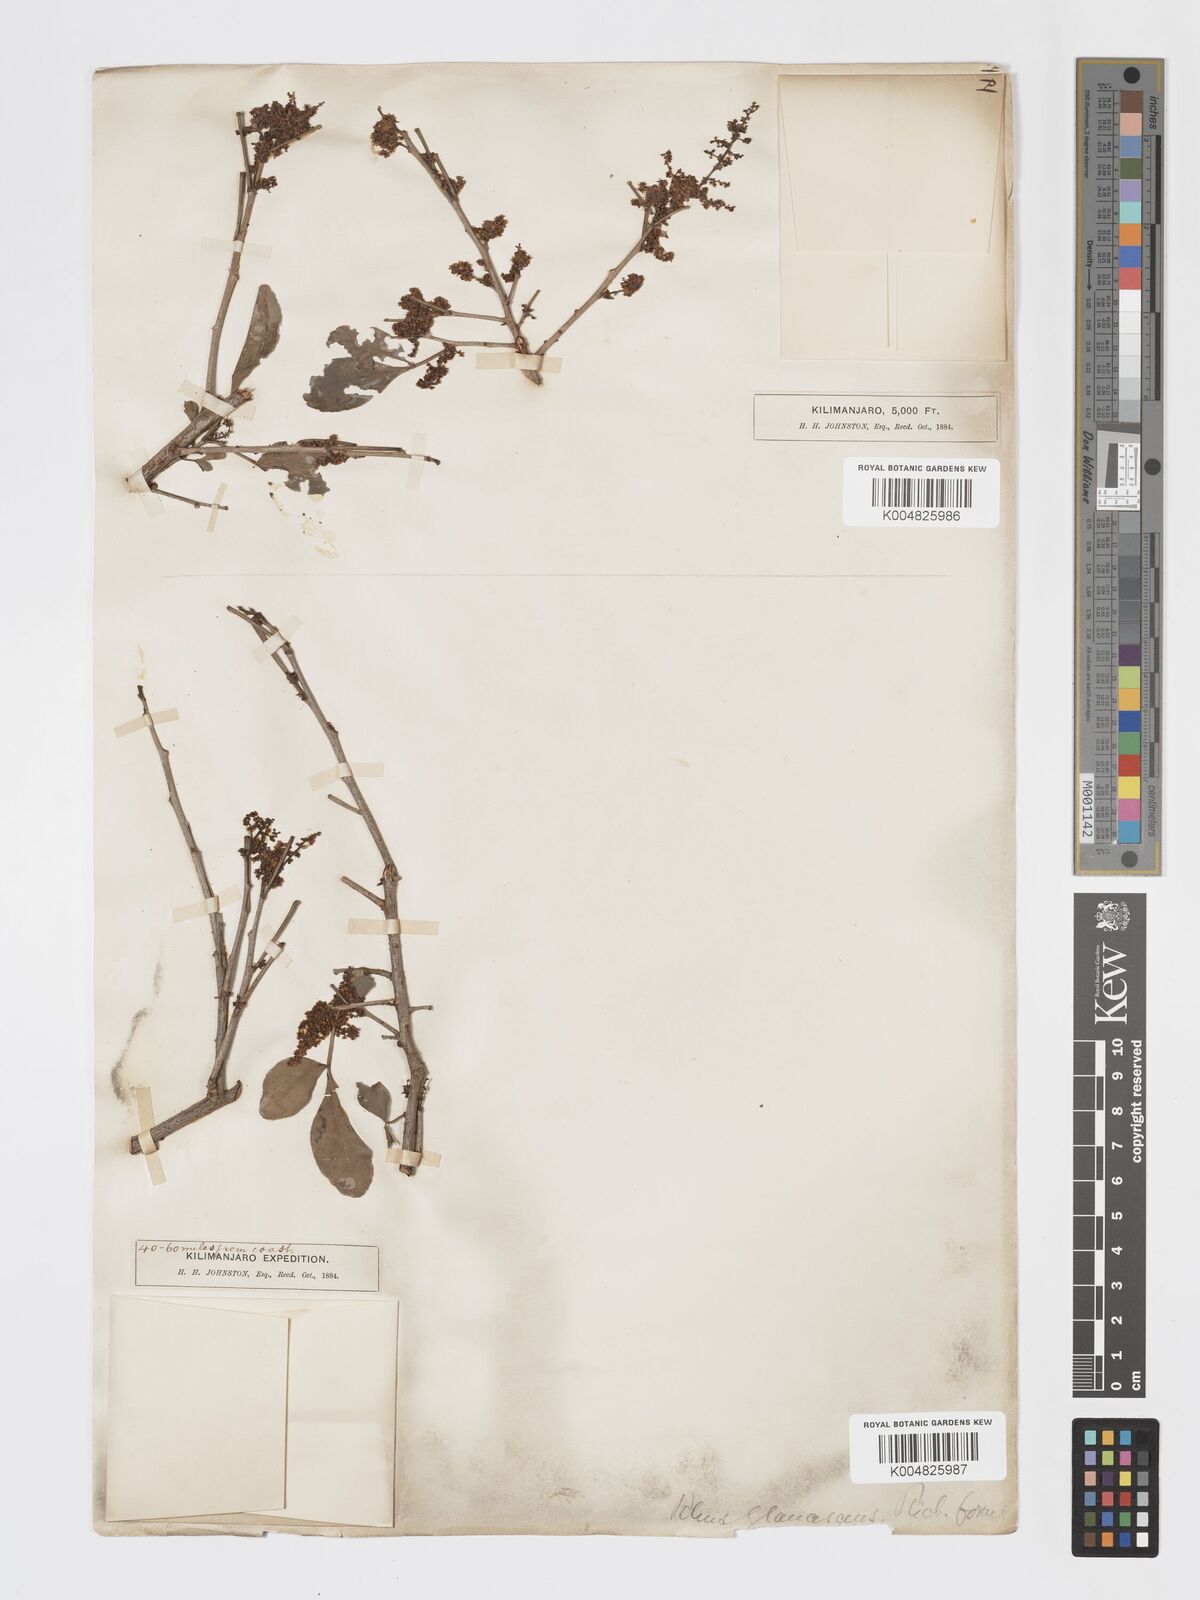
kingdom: Plantae
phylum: Tracheophyta
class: Magnoliopsida
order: Sapindales
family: Anacardiaceae
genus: Searsia
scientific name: Searsia natalensis
